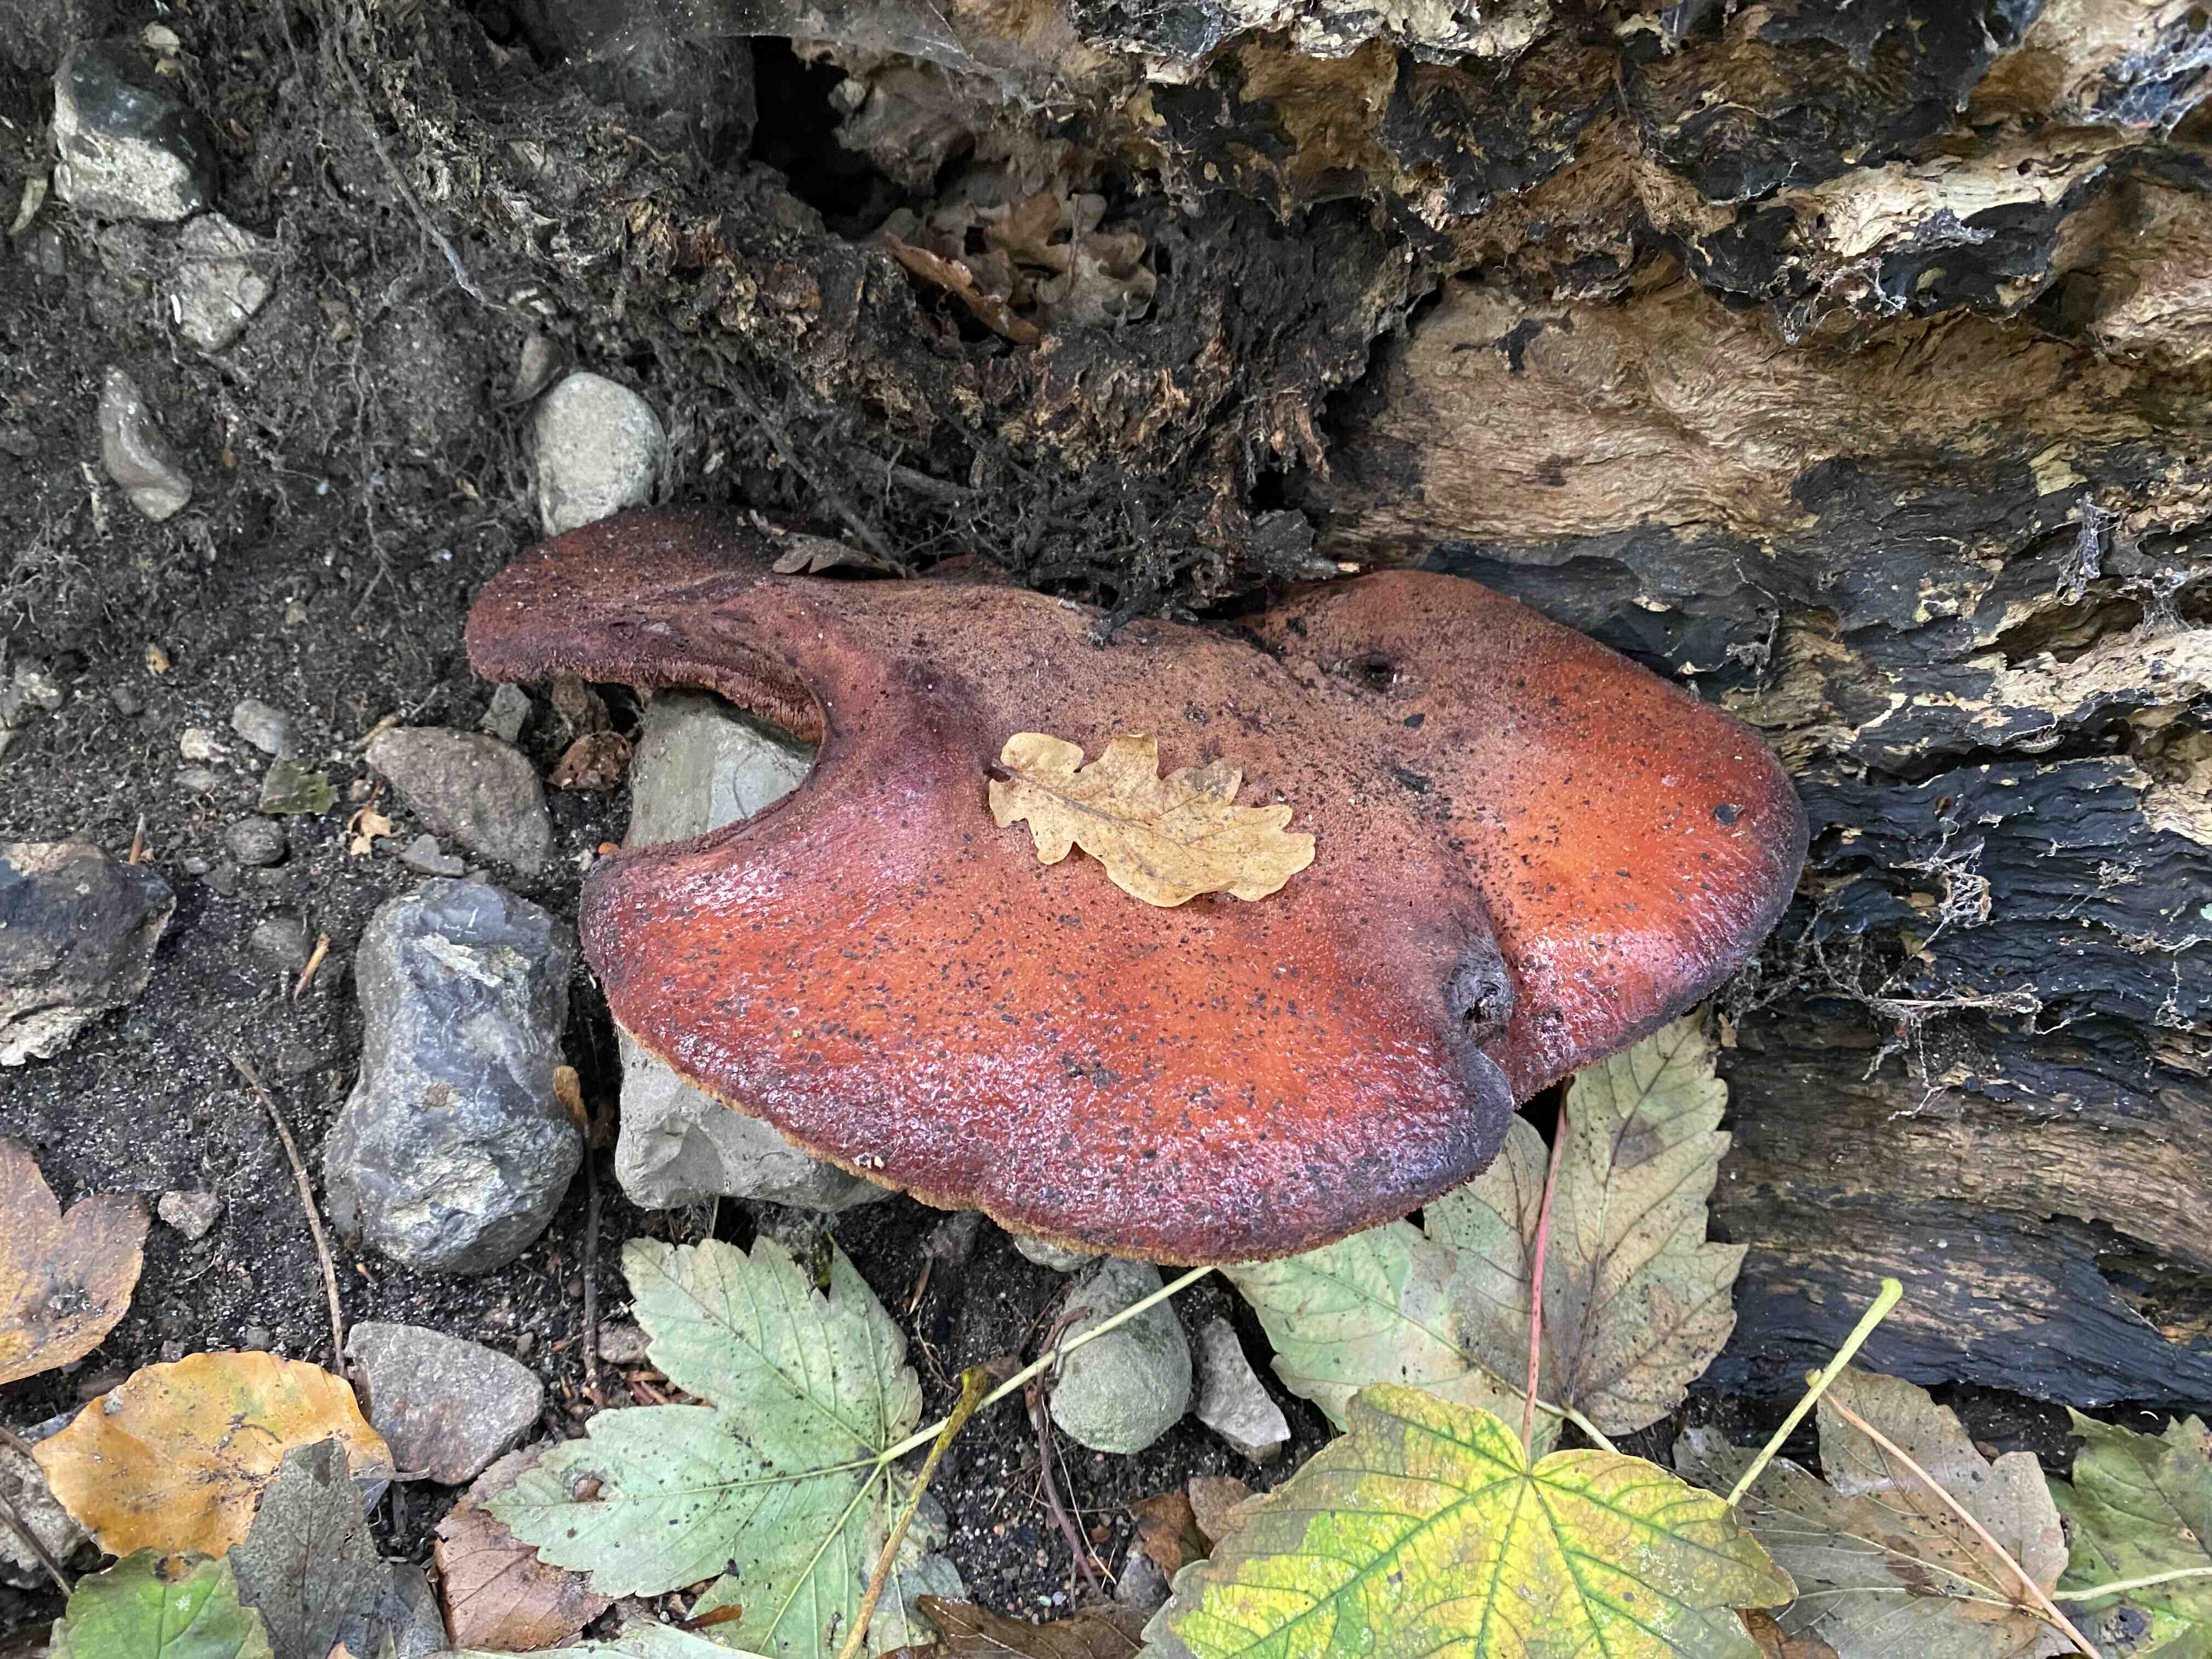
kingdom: Fungi
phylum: Basidiomycota
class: Agaricomycetes
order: Agaricales
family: Fistulinaceae
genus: Fistulina
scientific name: Fistulina hepatica
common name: oksetunge
